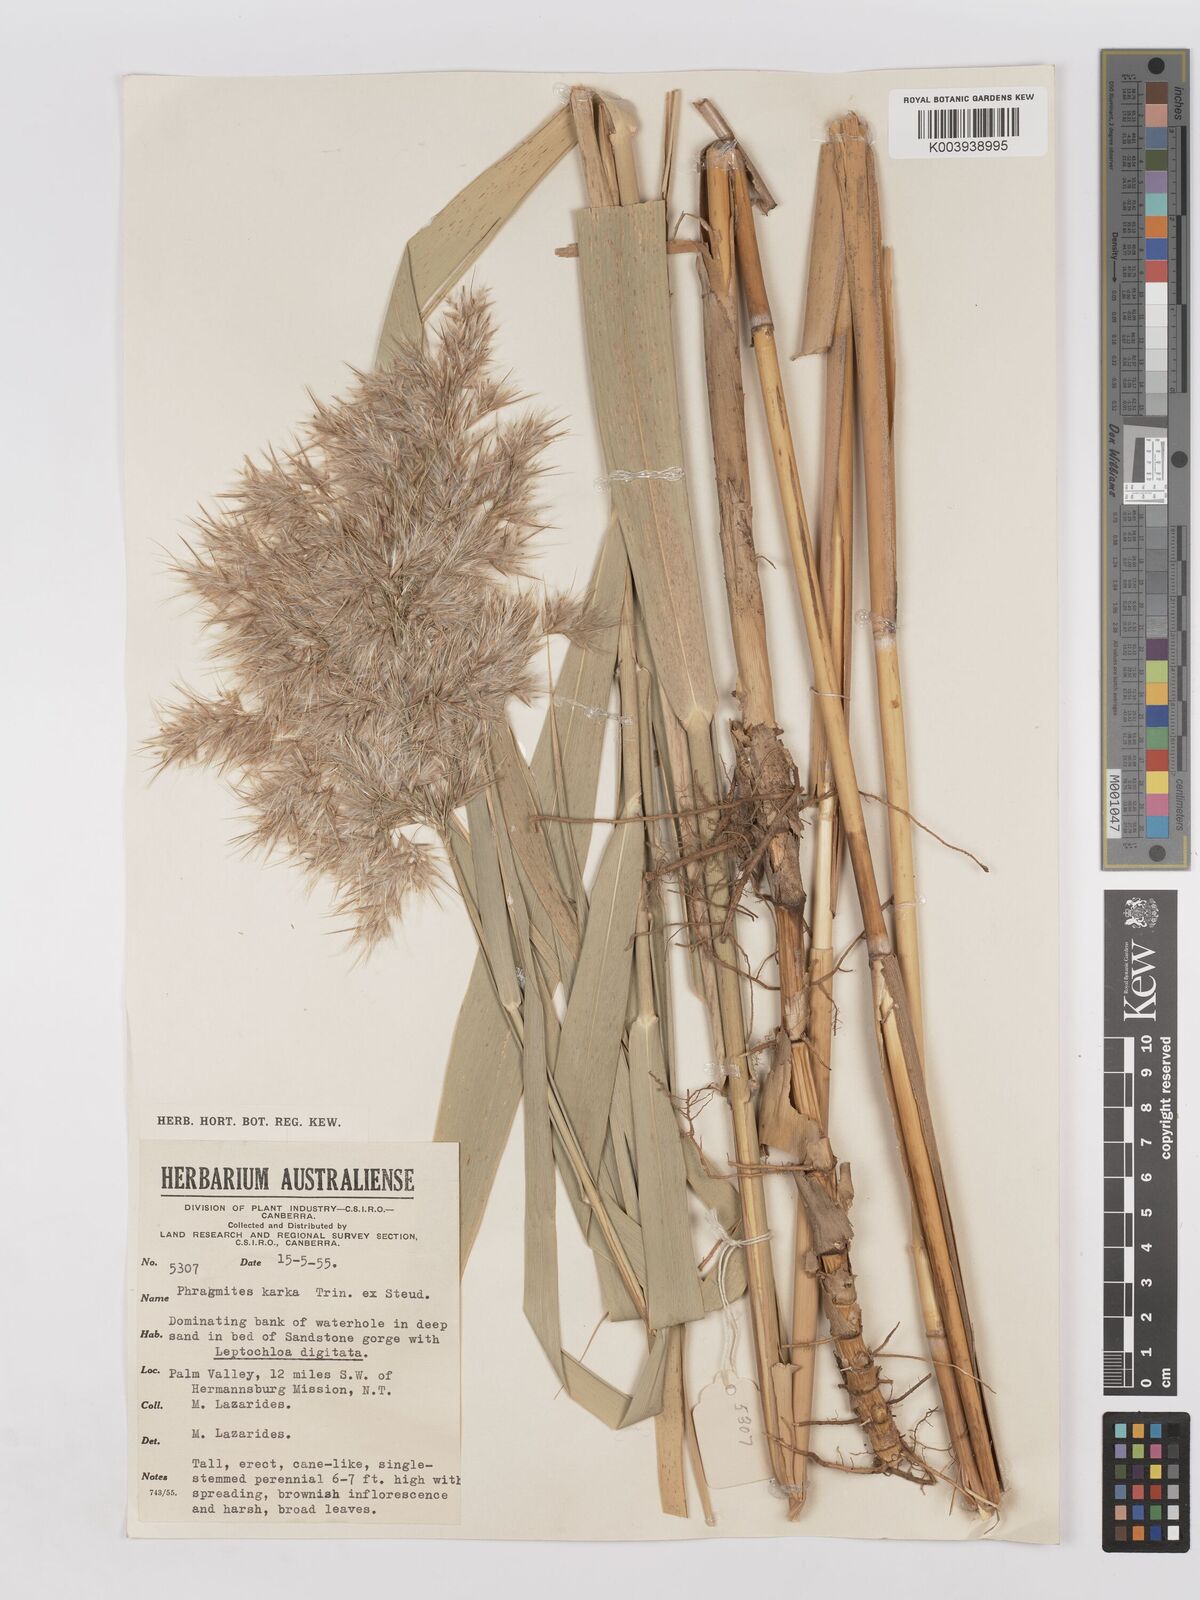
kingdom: Plantae
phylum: Tracheophyta
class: Liliopsida
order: Poales
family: Poaceae
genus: Phragmites
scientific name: Phragmites australis
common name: Common reed
